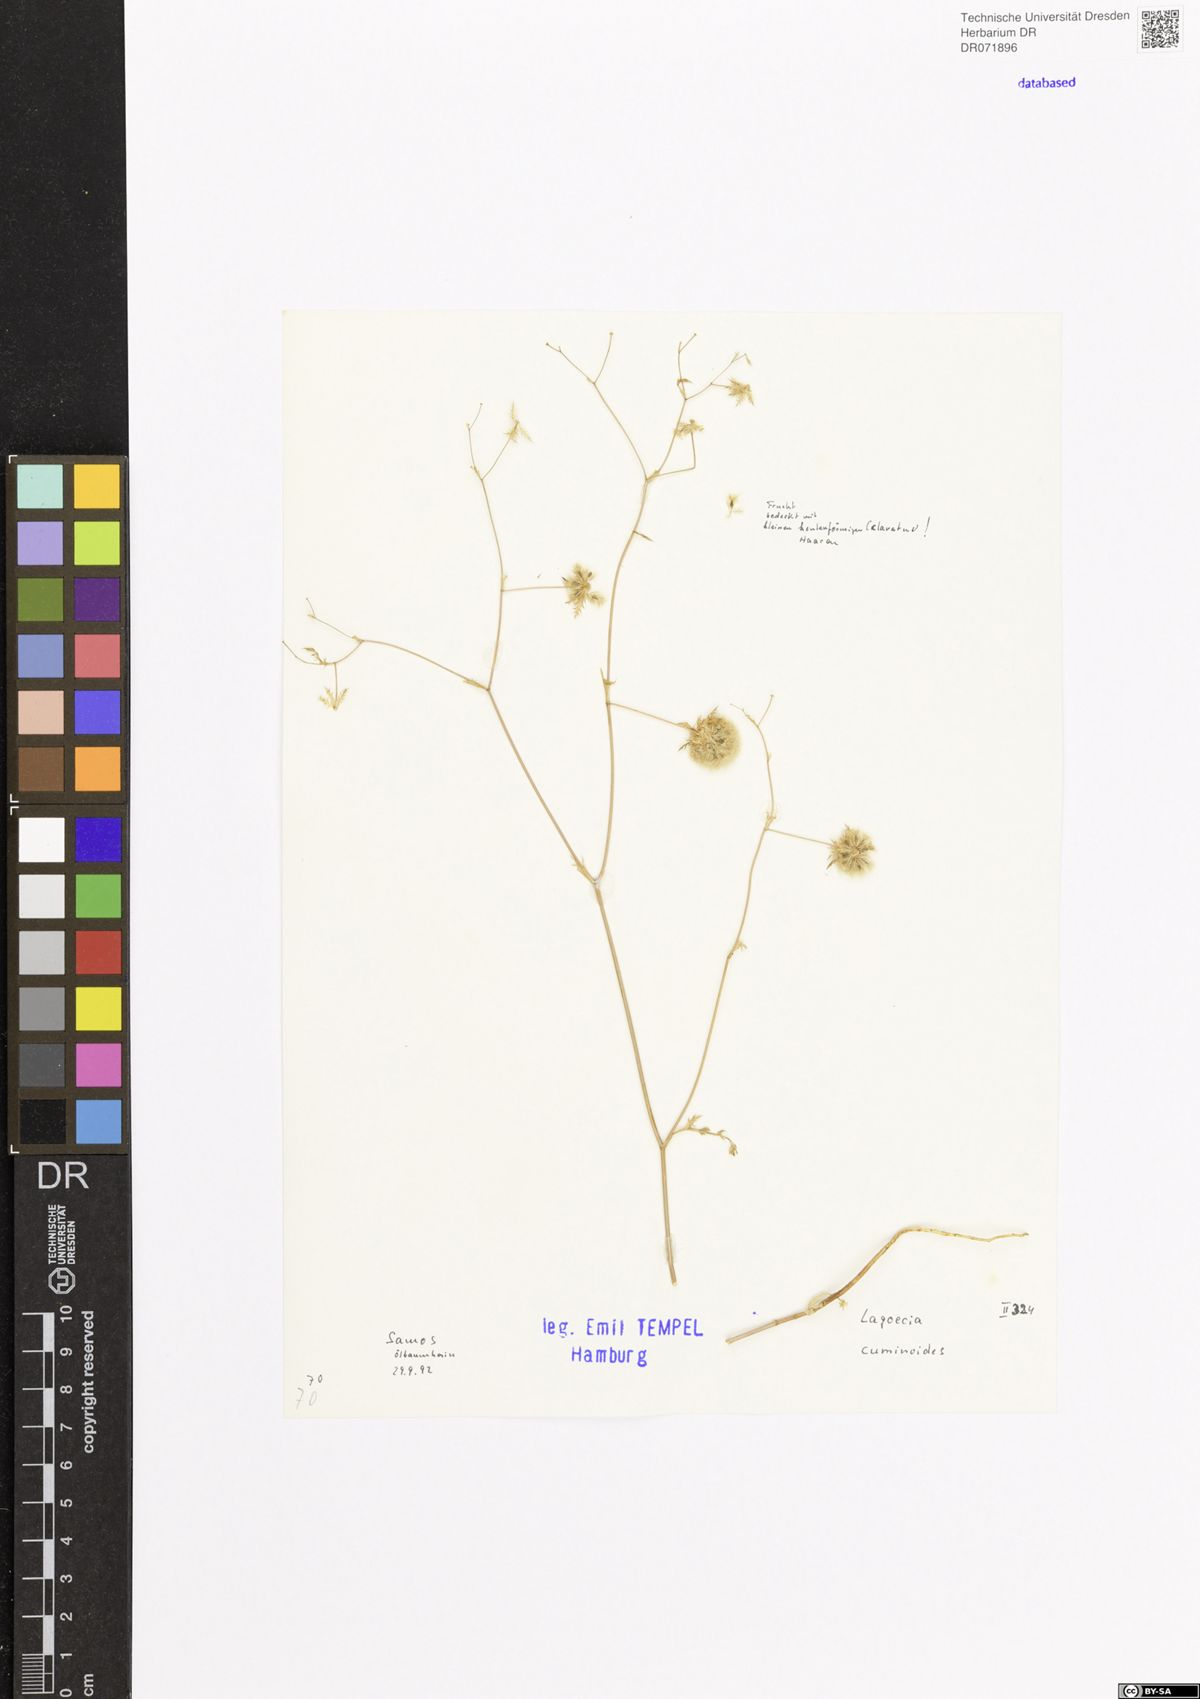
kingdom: Plantae
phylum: Tracheophyta
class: Magnoliopsida
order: Apiales
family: Apiaceae
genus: Lagoecia
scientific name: Lagoecia cuminoides
